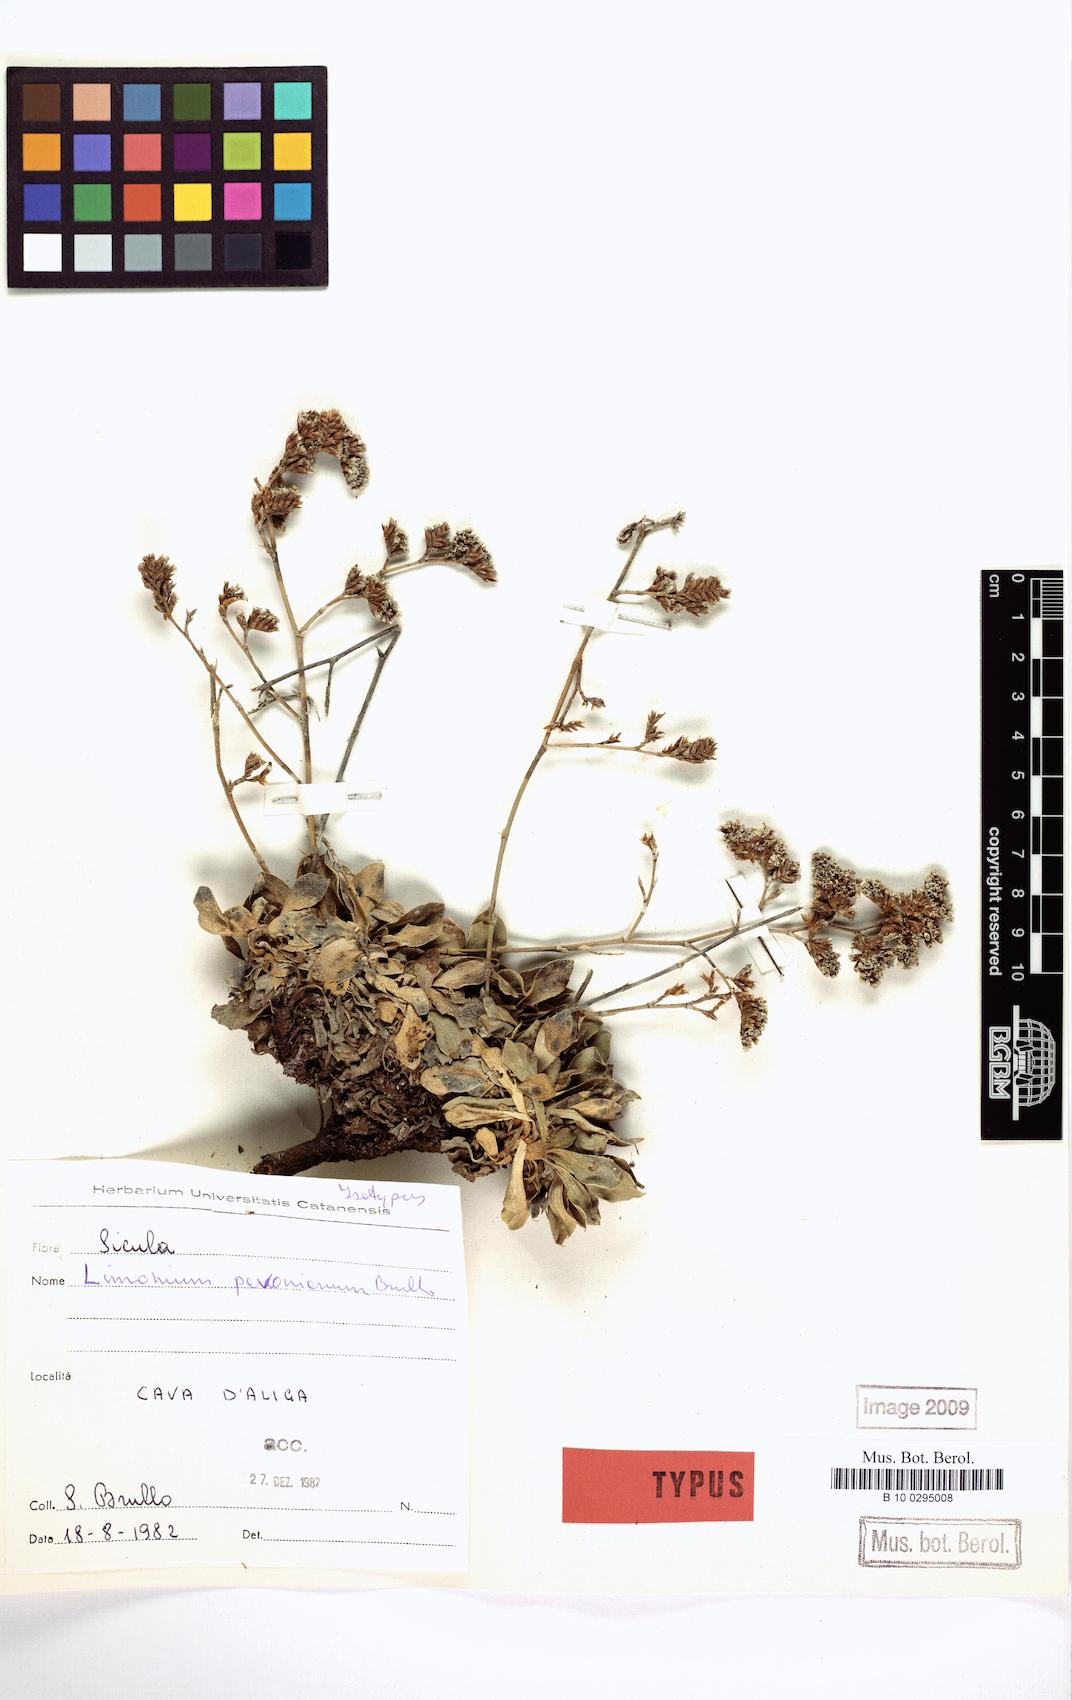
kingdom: Plantae
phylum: Tracheophyta
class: Magnoliopsida
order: Caryophyllales
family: Plumbaginaceae
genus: Limonium
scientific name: Limonium pavonianum
